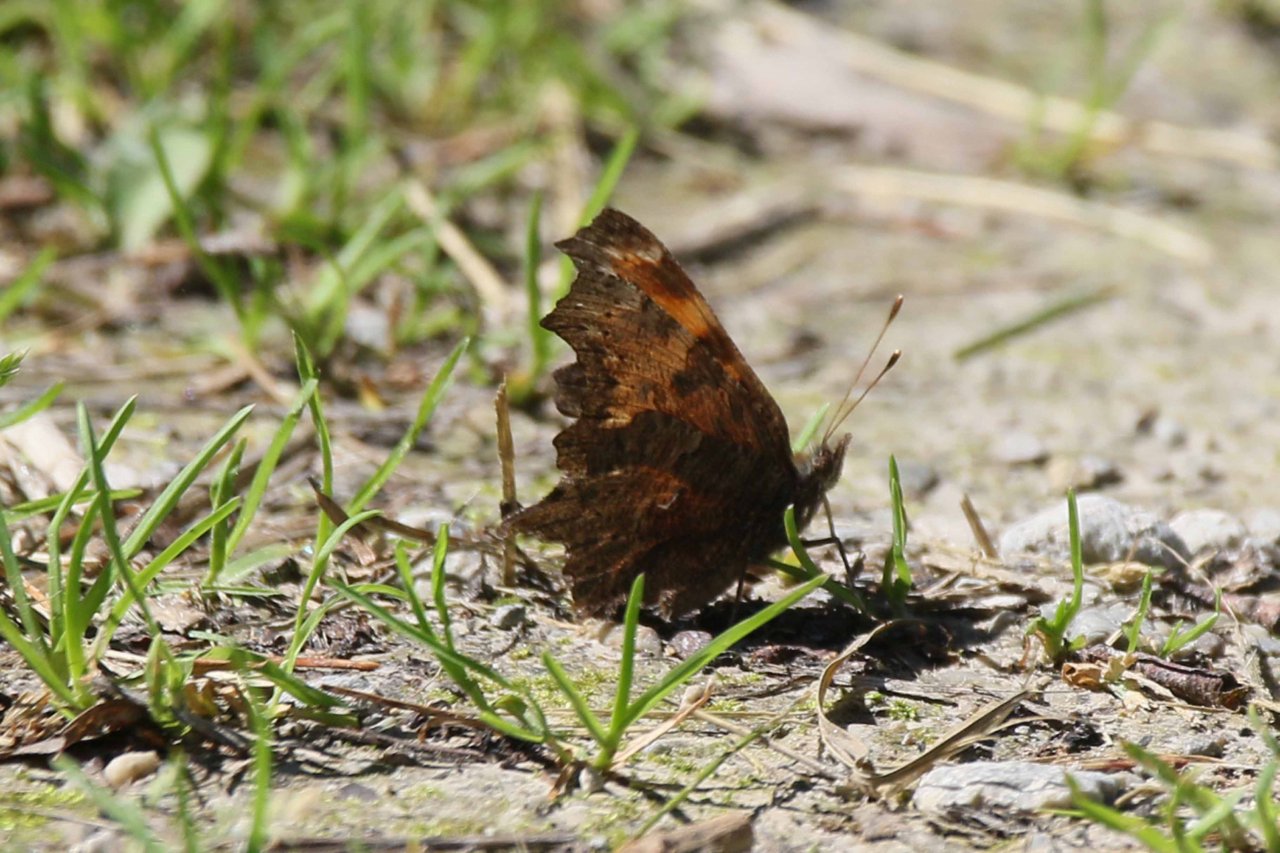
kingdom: Animalia
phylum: Arthropoda
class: Insecta
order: Lepidoptera
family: Nymphalidae
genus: Polygonia
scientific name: Polygonia progne
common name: Gray Comma
